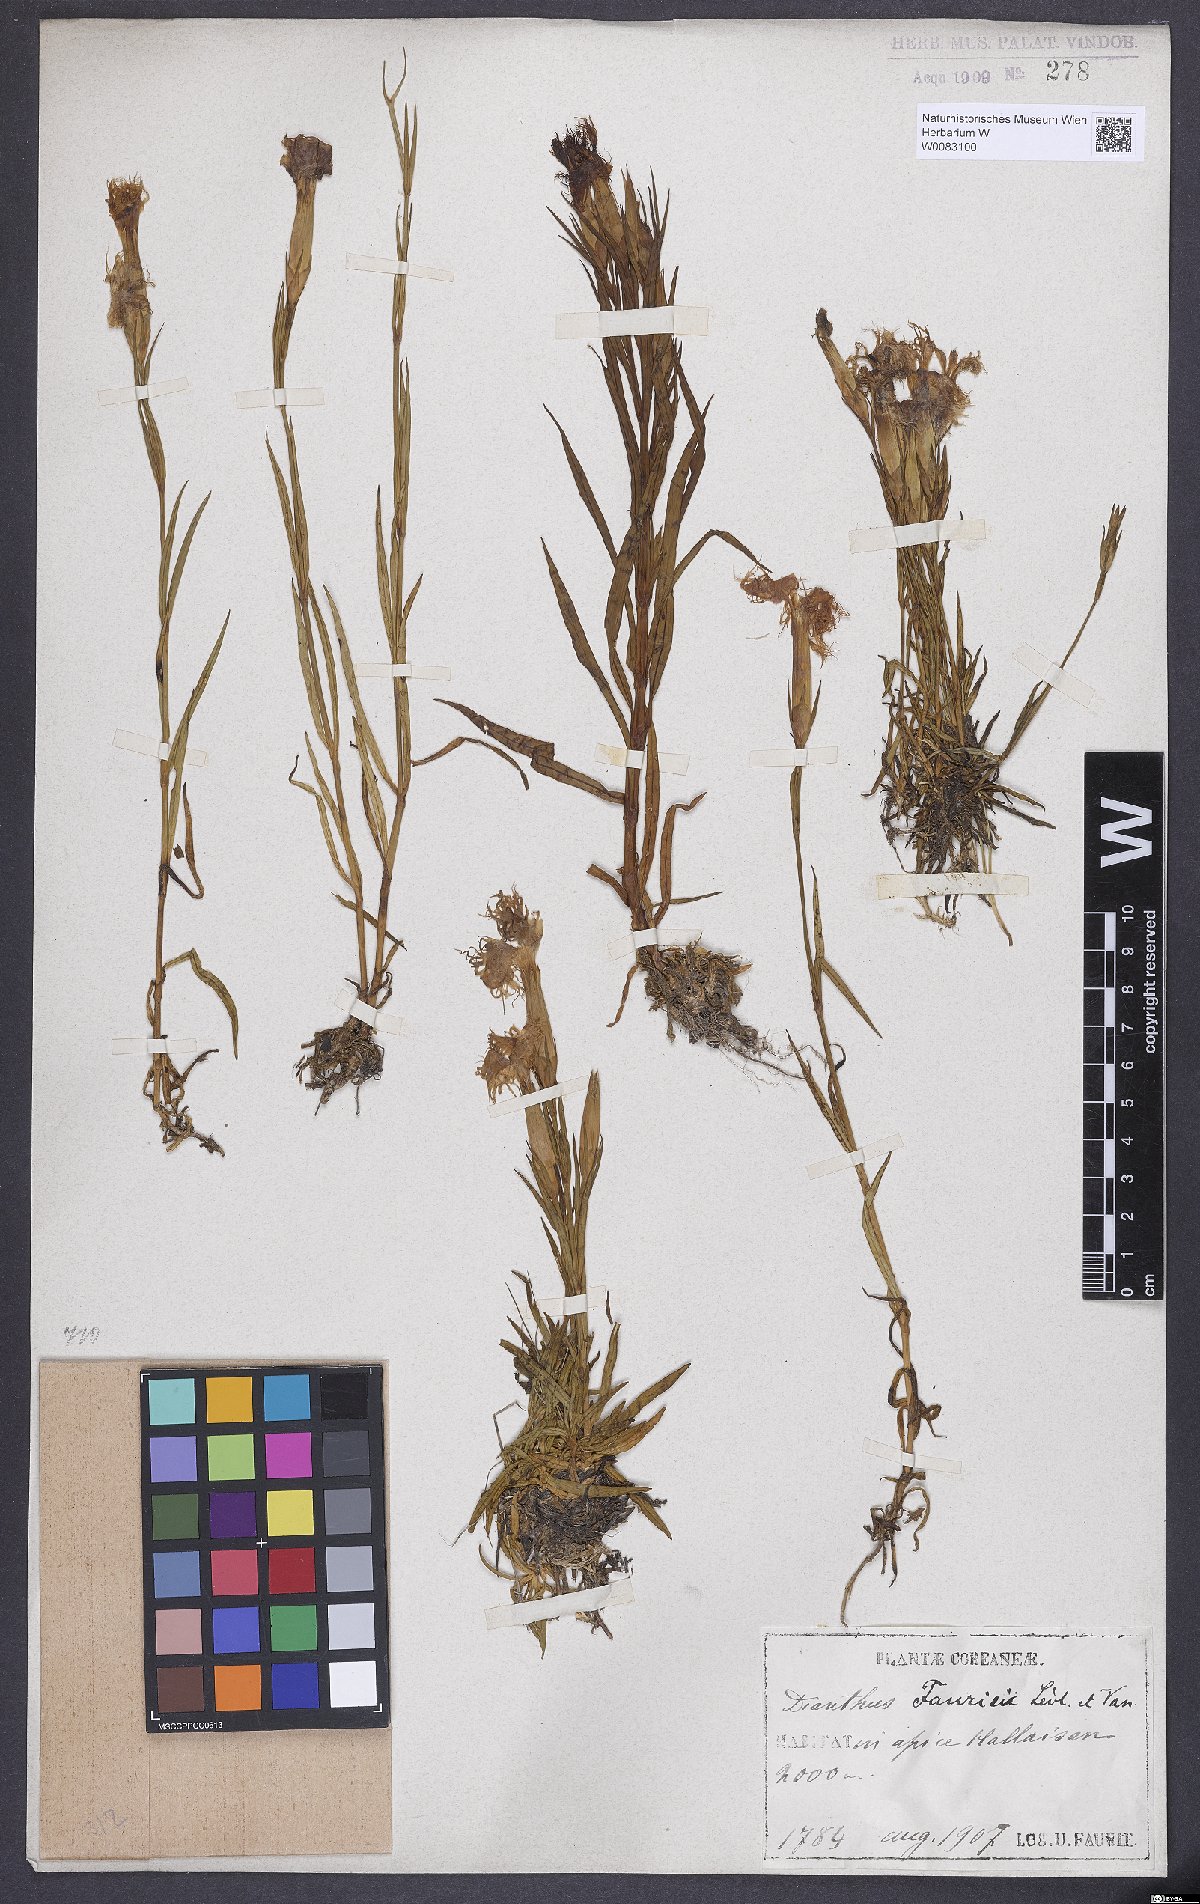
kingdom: Plantae
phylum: Tracheophyta
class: Magnoliopsida
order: Caryophyllales
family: Caryophyllaceae
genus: Dianthus
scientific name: Dianthus fauriei
